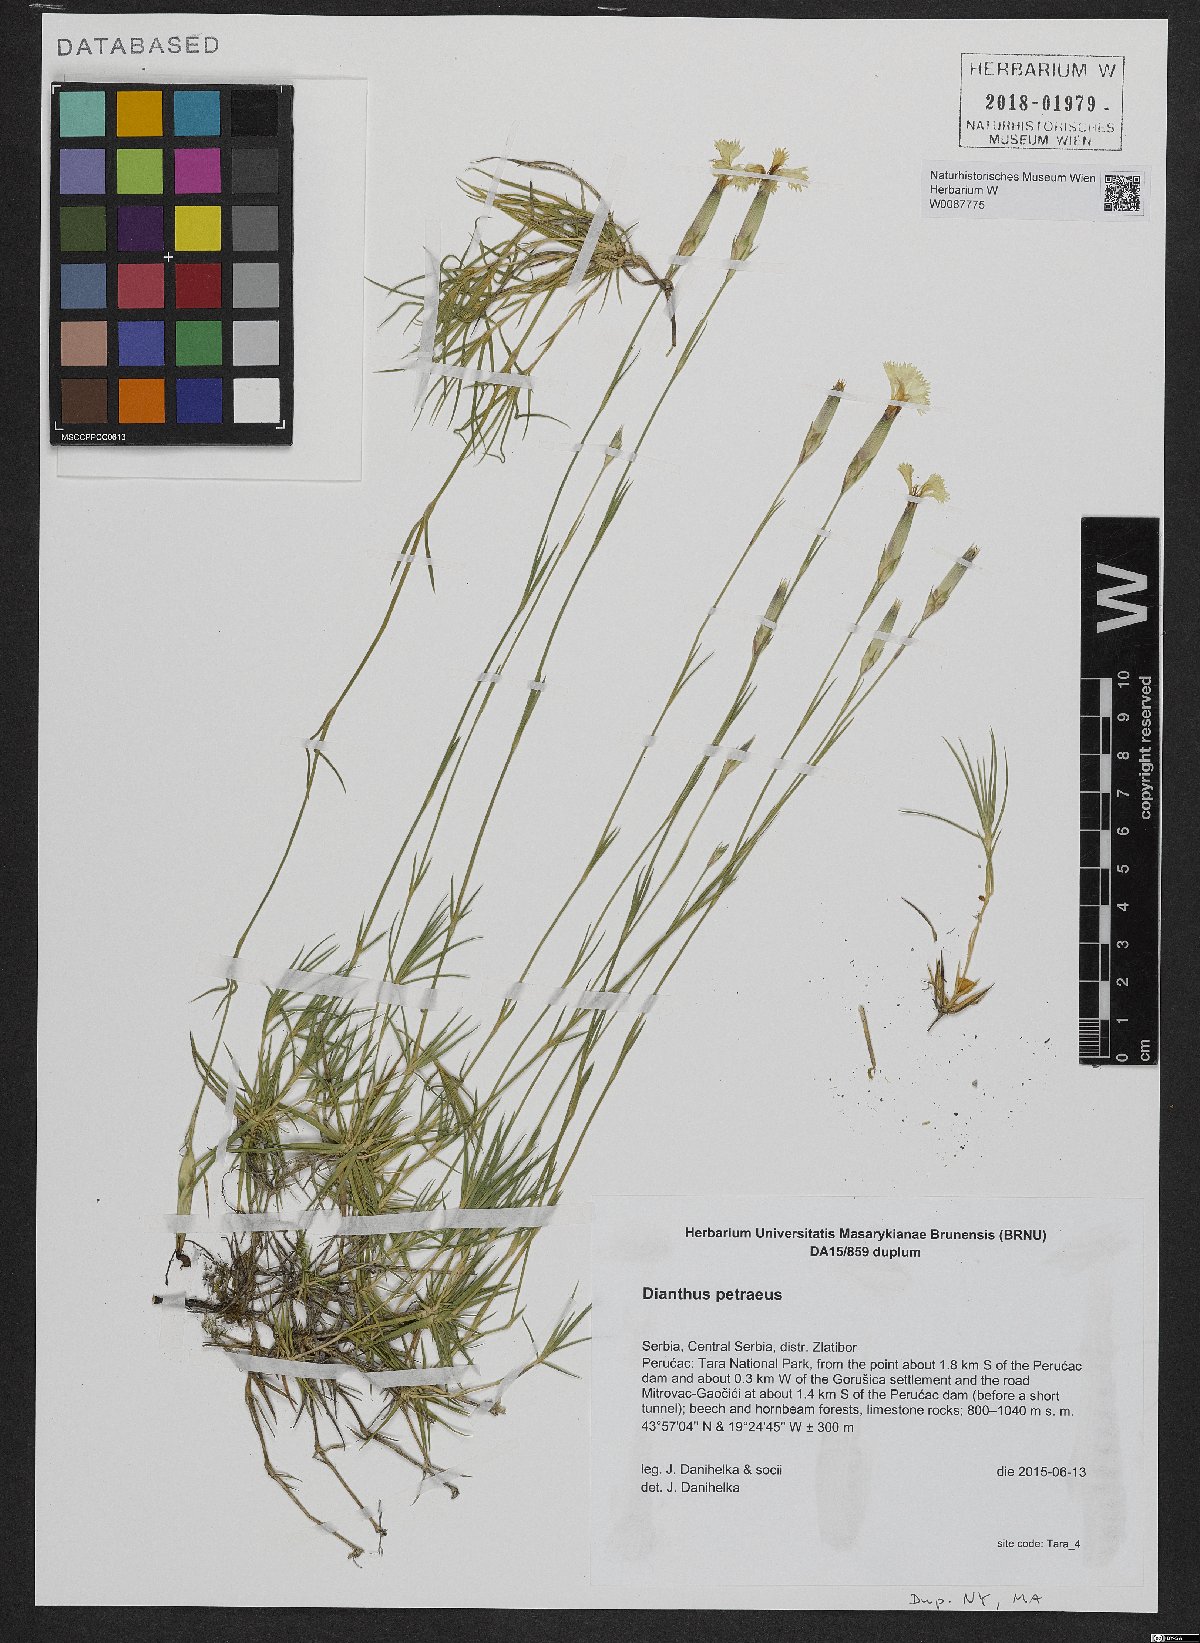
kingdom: Plantae
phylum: Tracheophyta
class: Magnoliopsida
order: Caryophyllales
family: Caryophyllaceae
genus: Dianthus
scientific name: Dianthus petraeus
